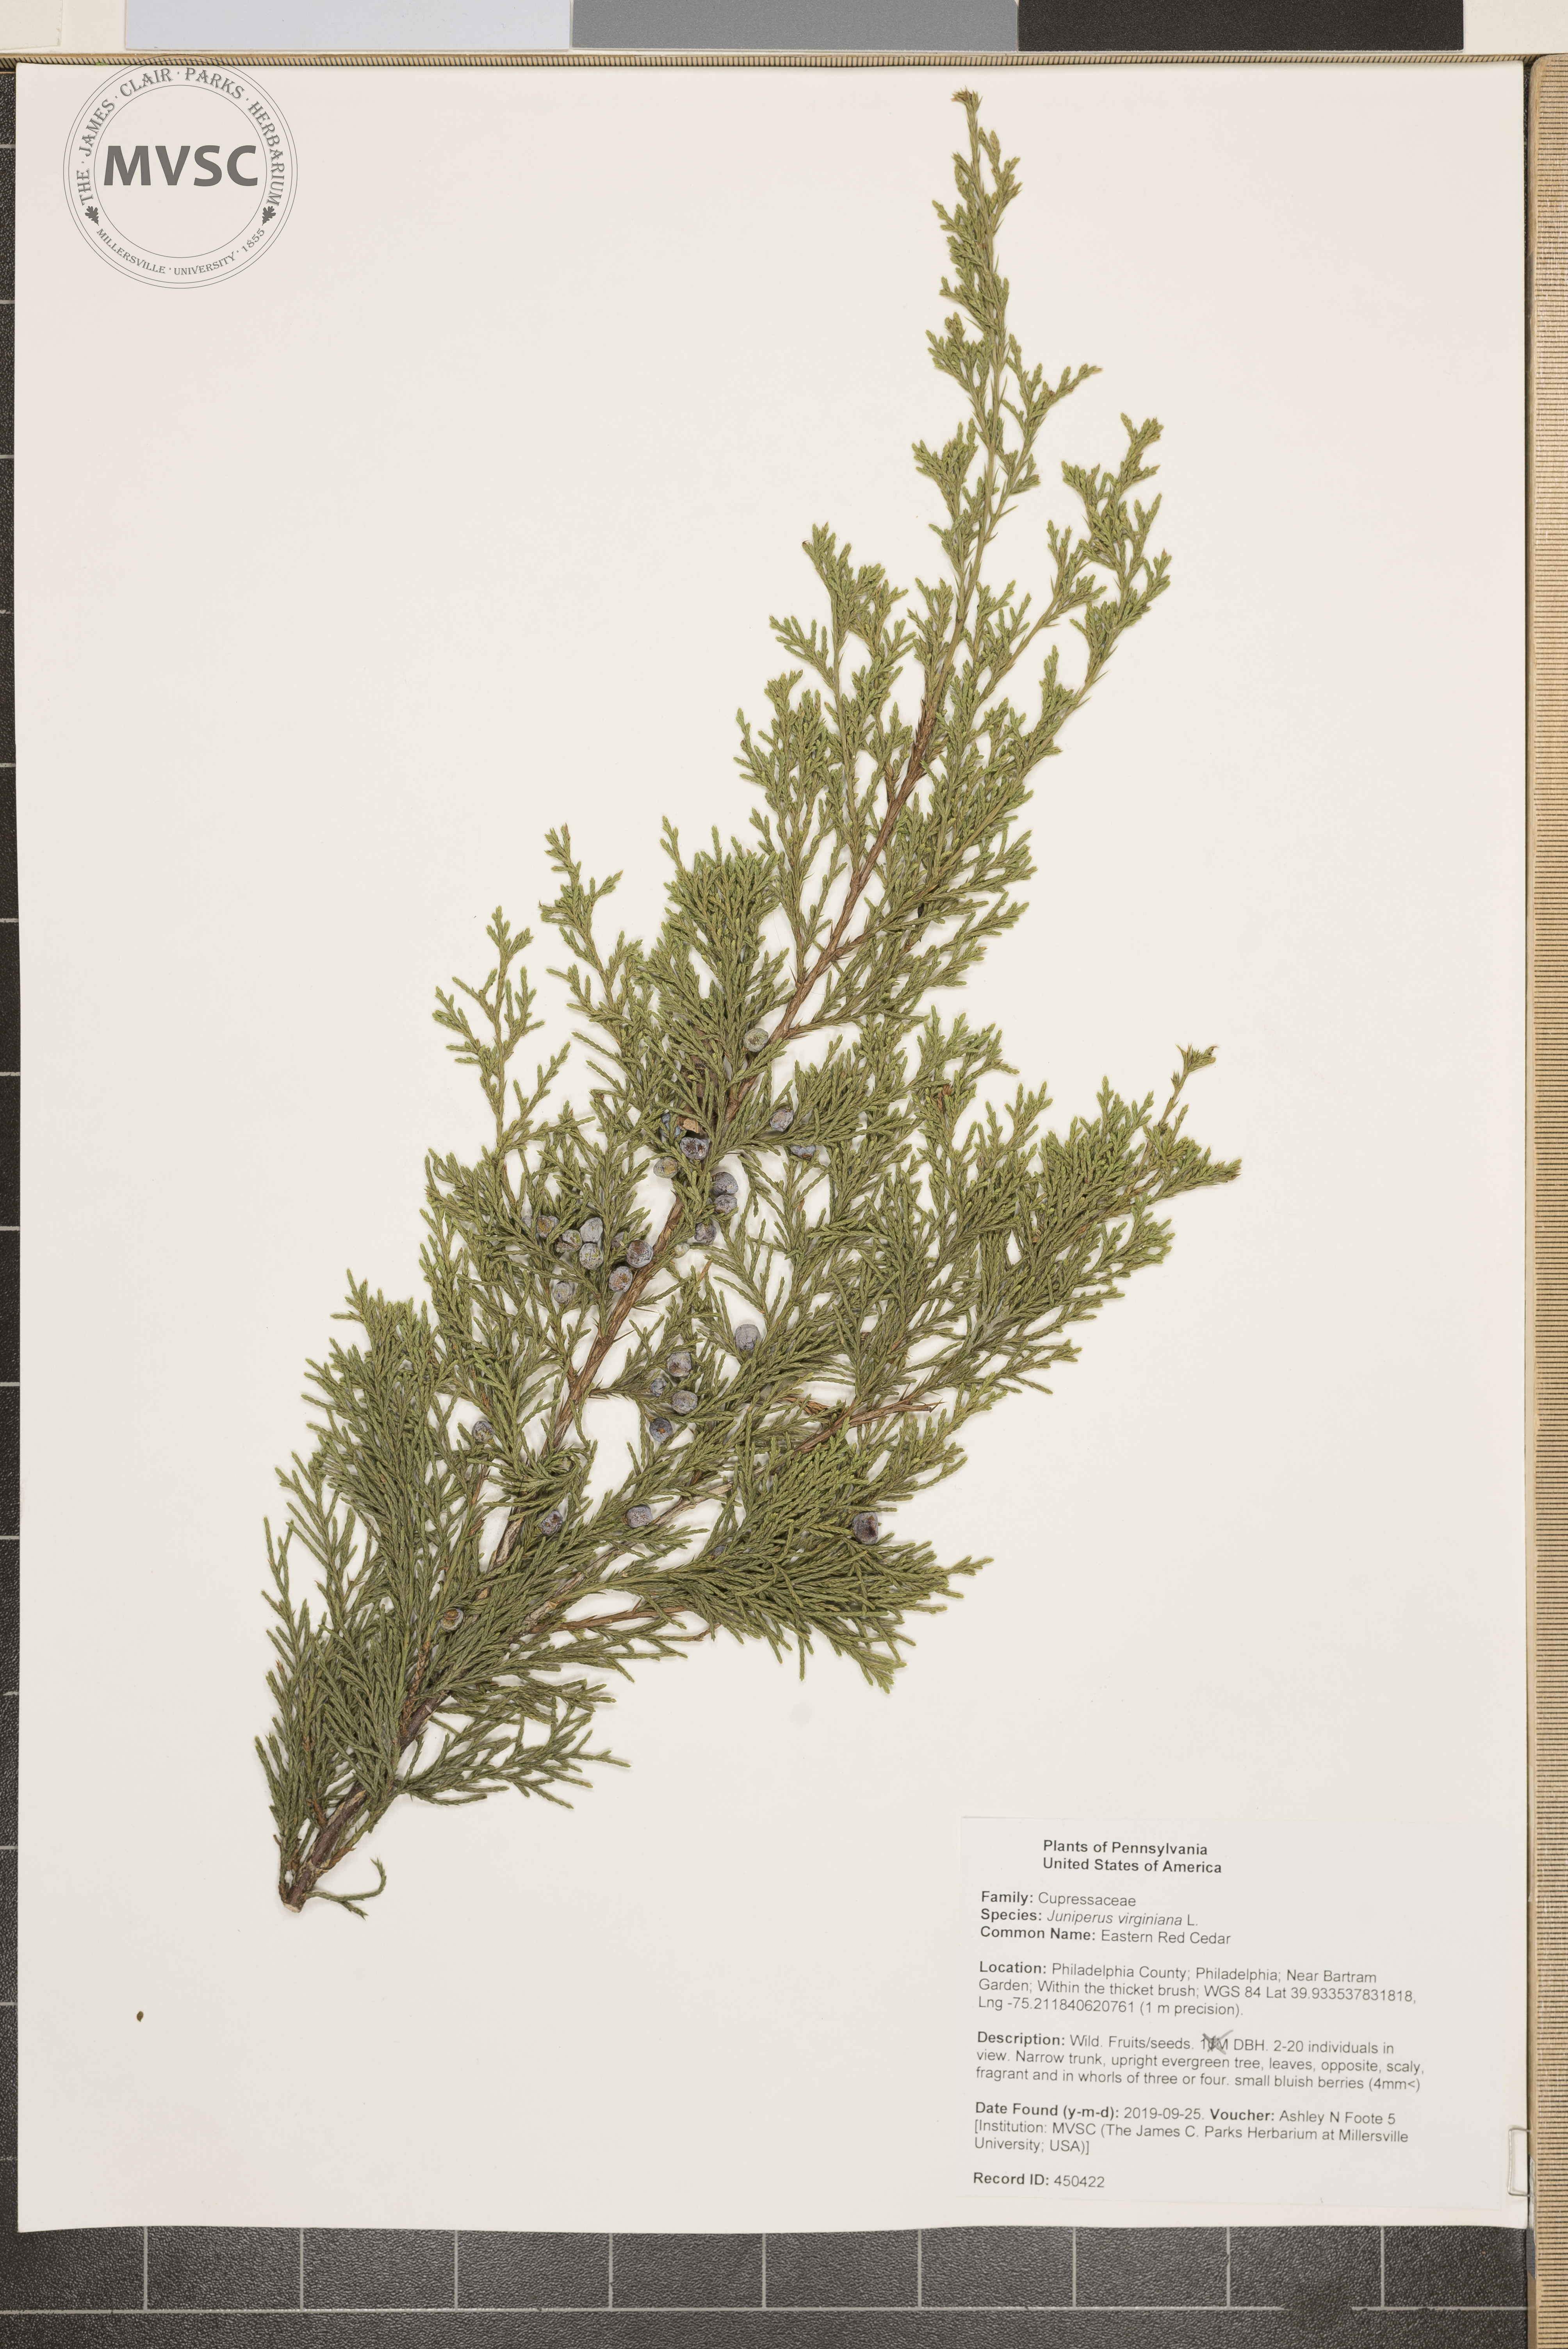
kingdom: Plantae
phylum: Tracheophyta
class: Pinopsida
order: Pinales
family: Cupressaceae
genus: Juniperus
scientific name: Juniperus virginiana
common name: Eastern Red Cedar
